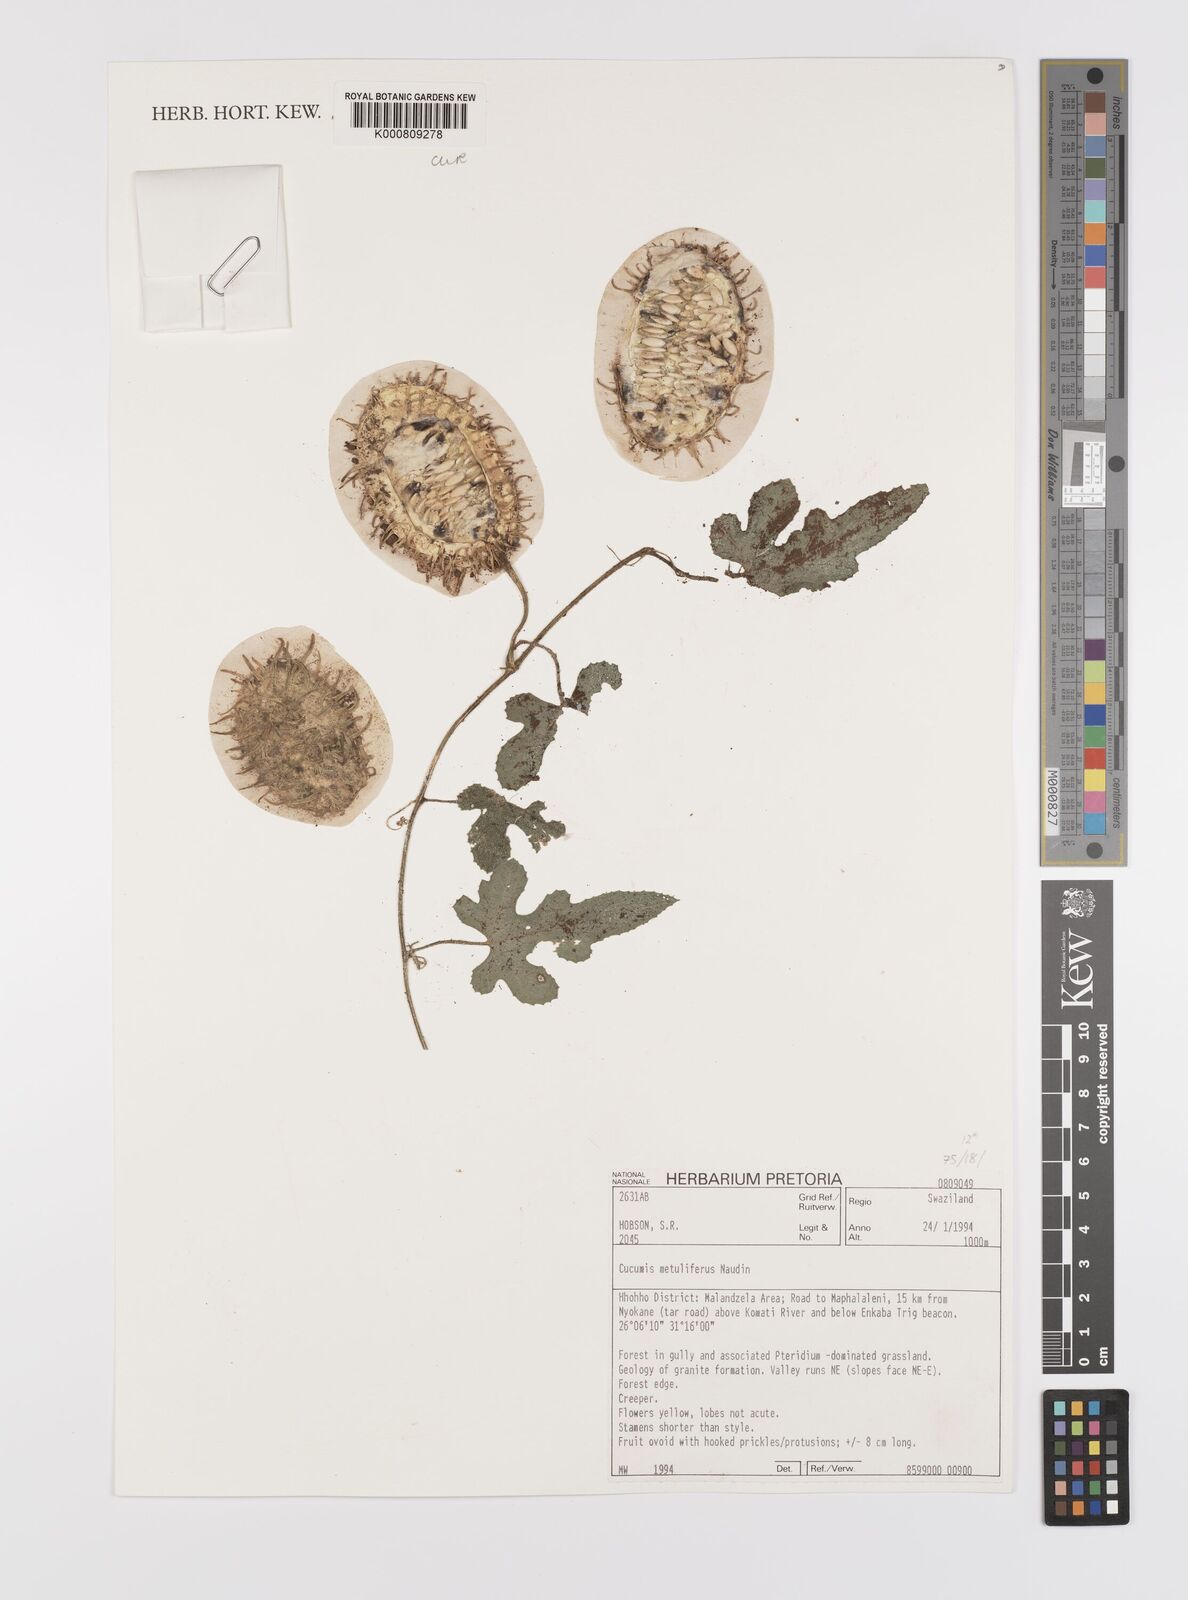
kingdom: Plantae
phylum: Tracheophyta
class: Magnoliopsida
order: Cucurbitales
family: Cucurbitaceae
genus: Cucumis
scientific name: Cucumis
